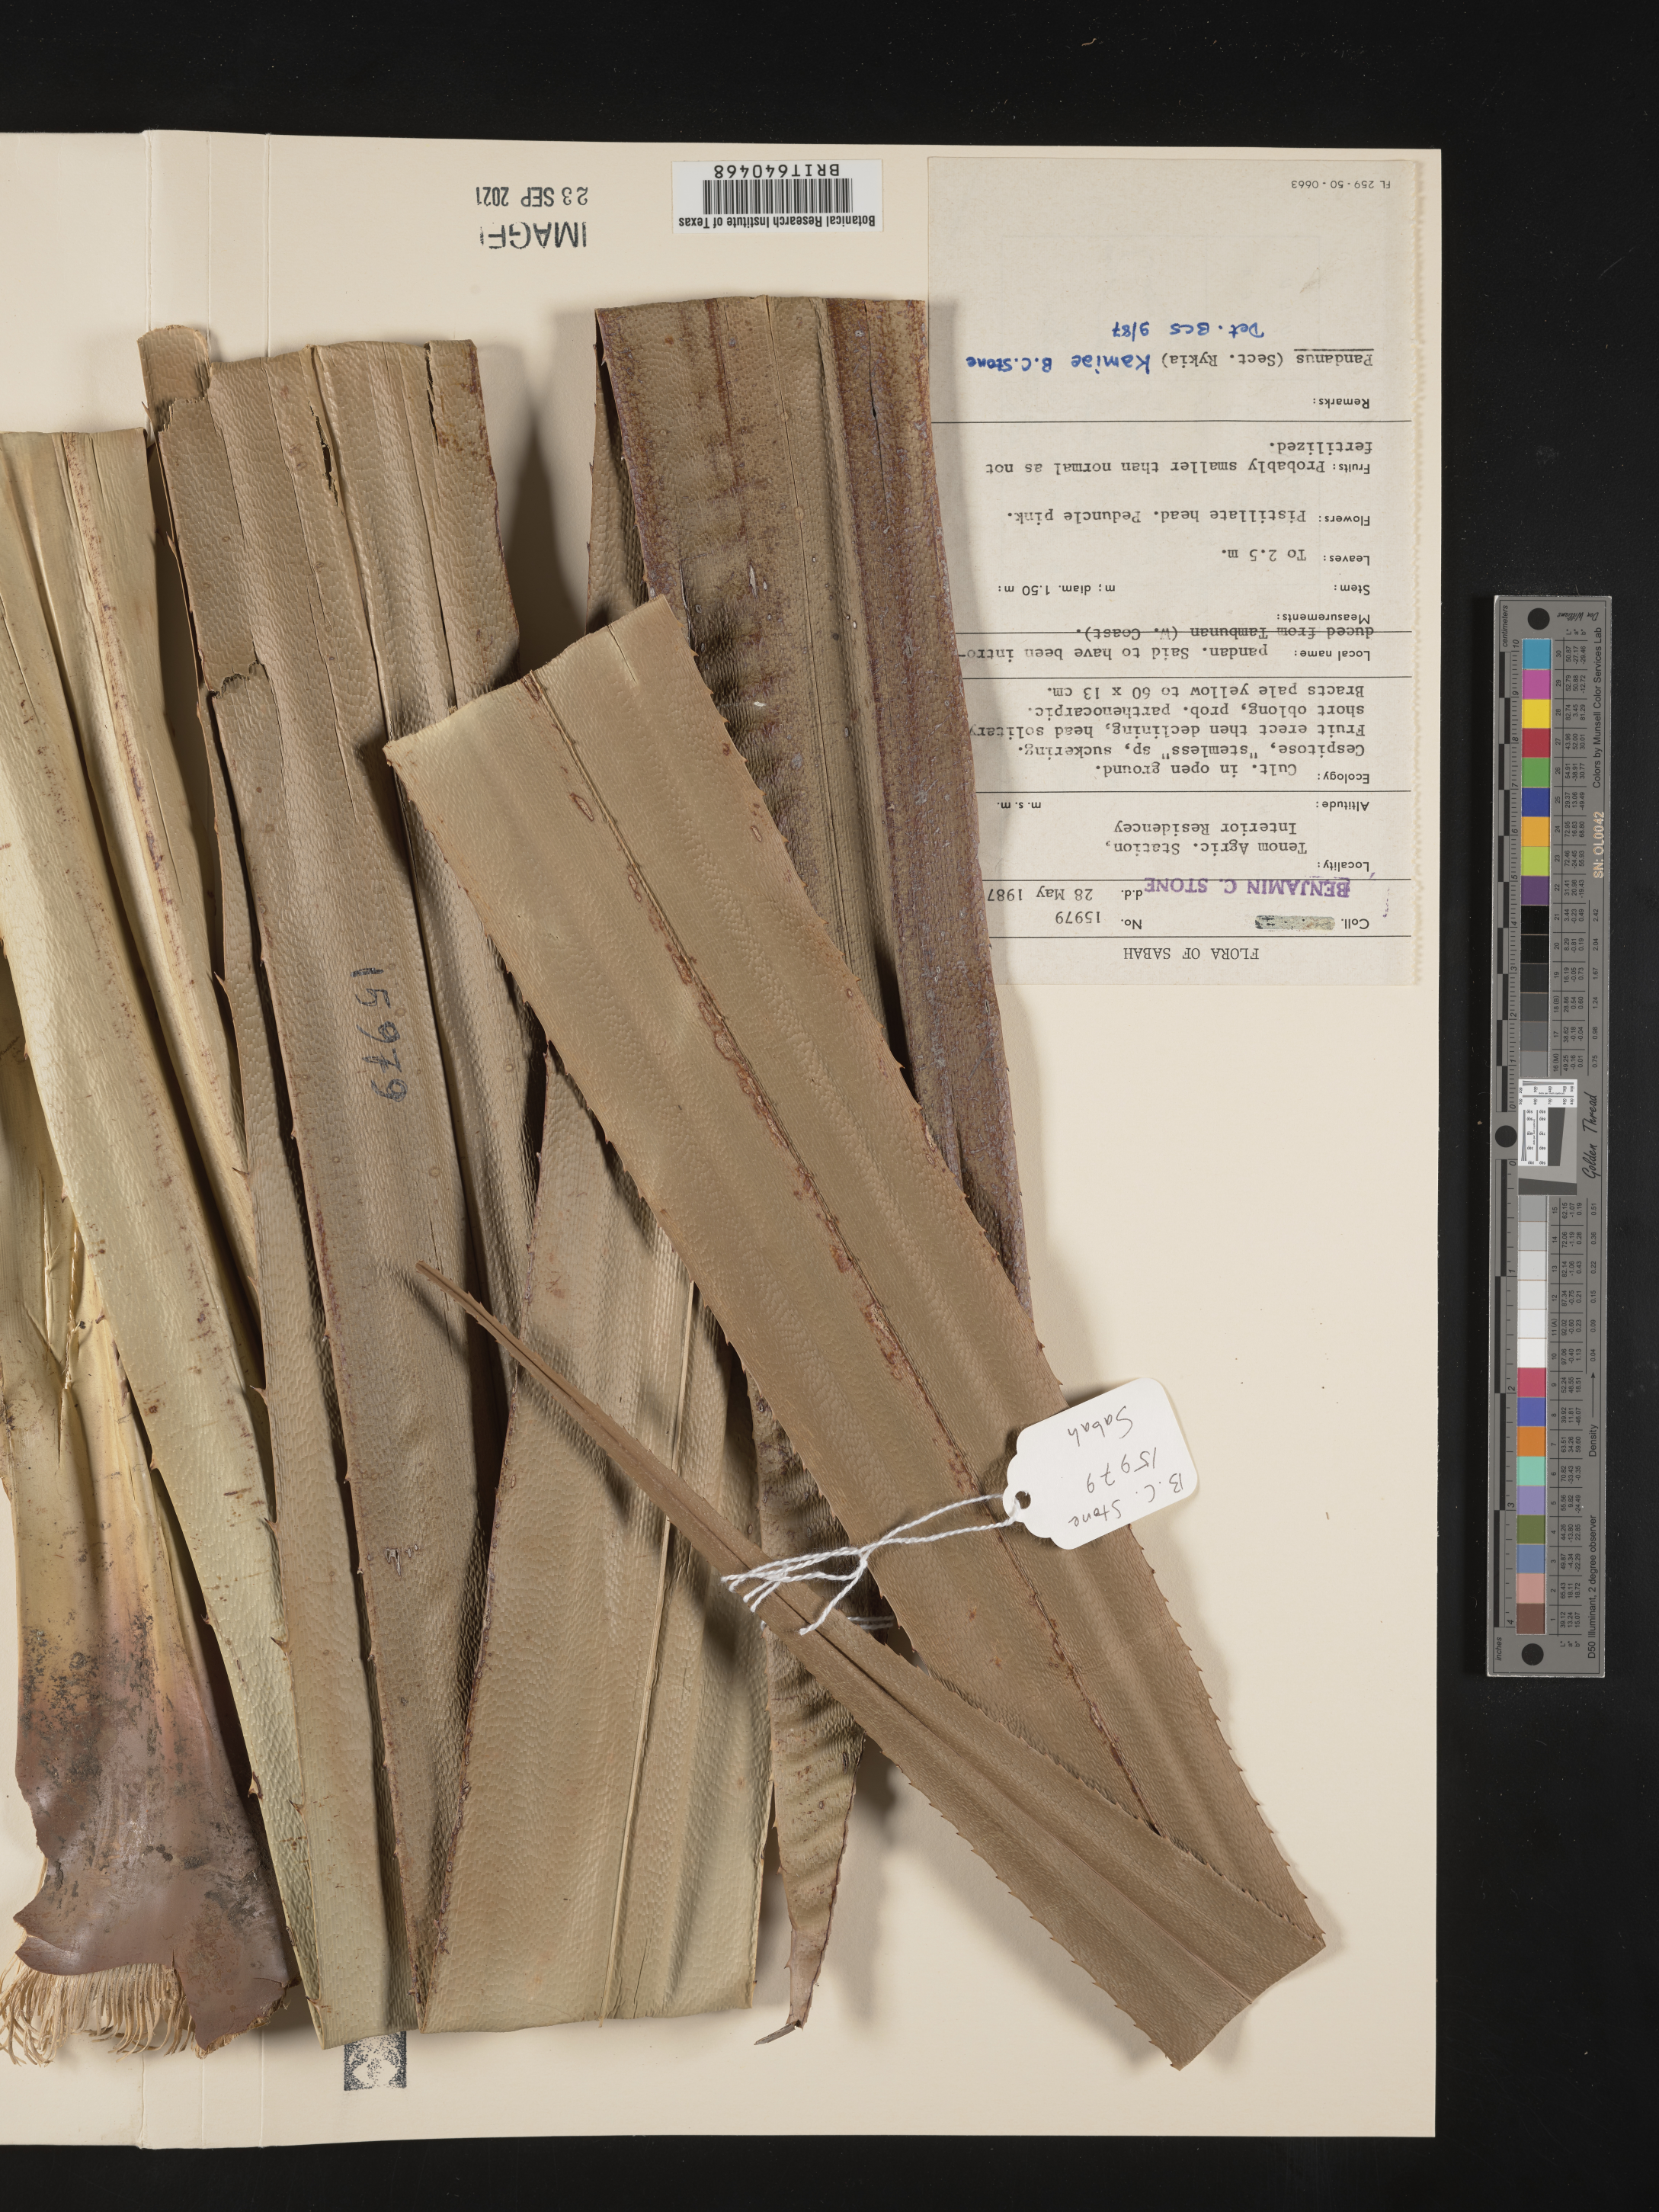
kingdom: Plantae
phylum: Tracheophyta
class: Liliopsida
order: Pandanales
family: Pandanaceae
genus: Pandanus
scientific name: Pandanus kamiae
